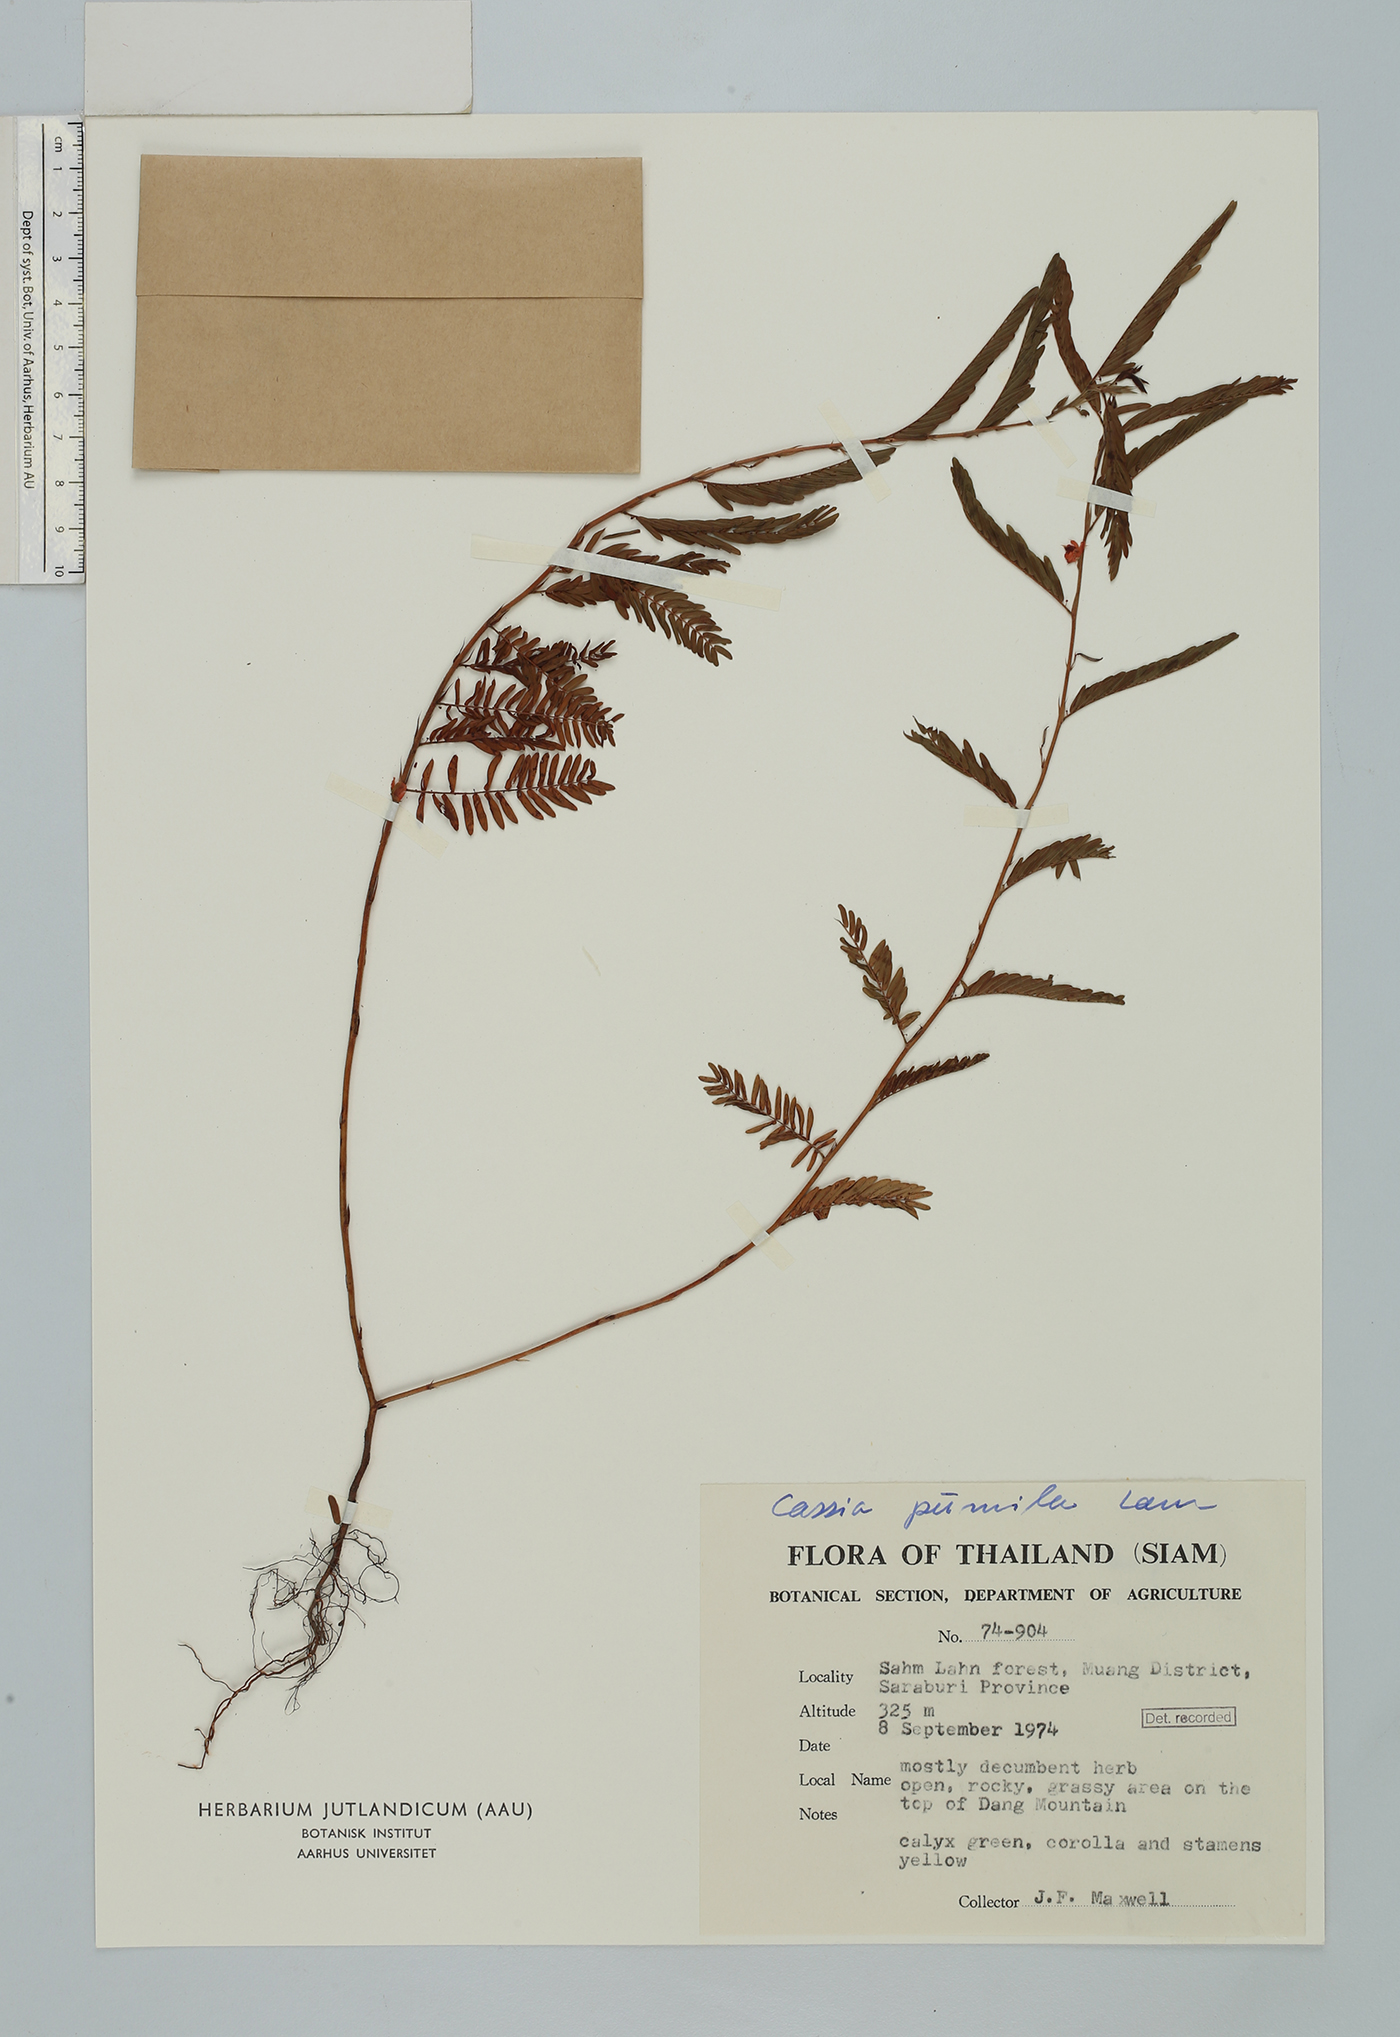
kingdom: Plantae
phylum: Tracheophyta
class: Magnoliopsida
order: Fabales
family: Fabaceae
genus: Chamaecrista
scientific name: Chamaecrista pumila
